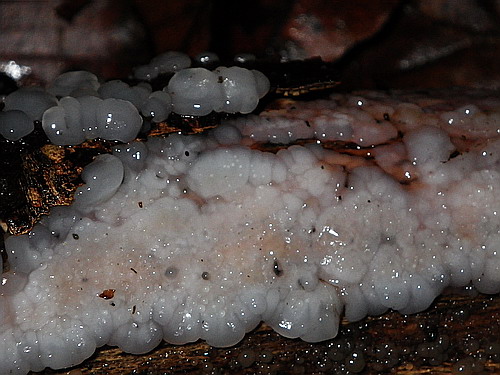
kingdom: Fungi
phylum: Basidiomycota
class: Agaricomycetes
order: Auriculariales
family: Auriculariaceae
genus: Exidia
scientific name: Exidia thuretiana
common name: hvidlig bævretop
